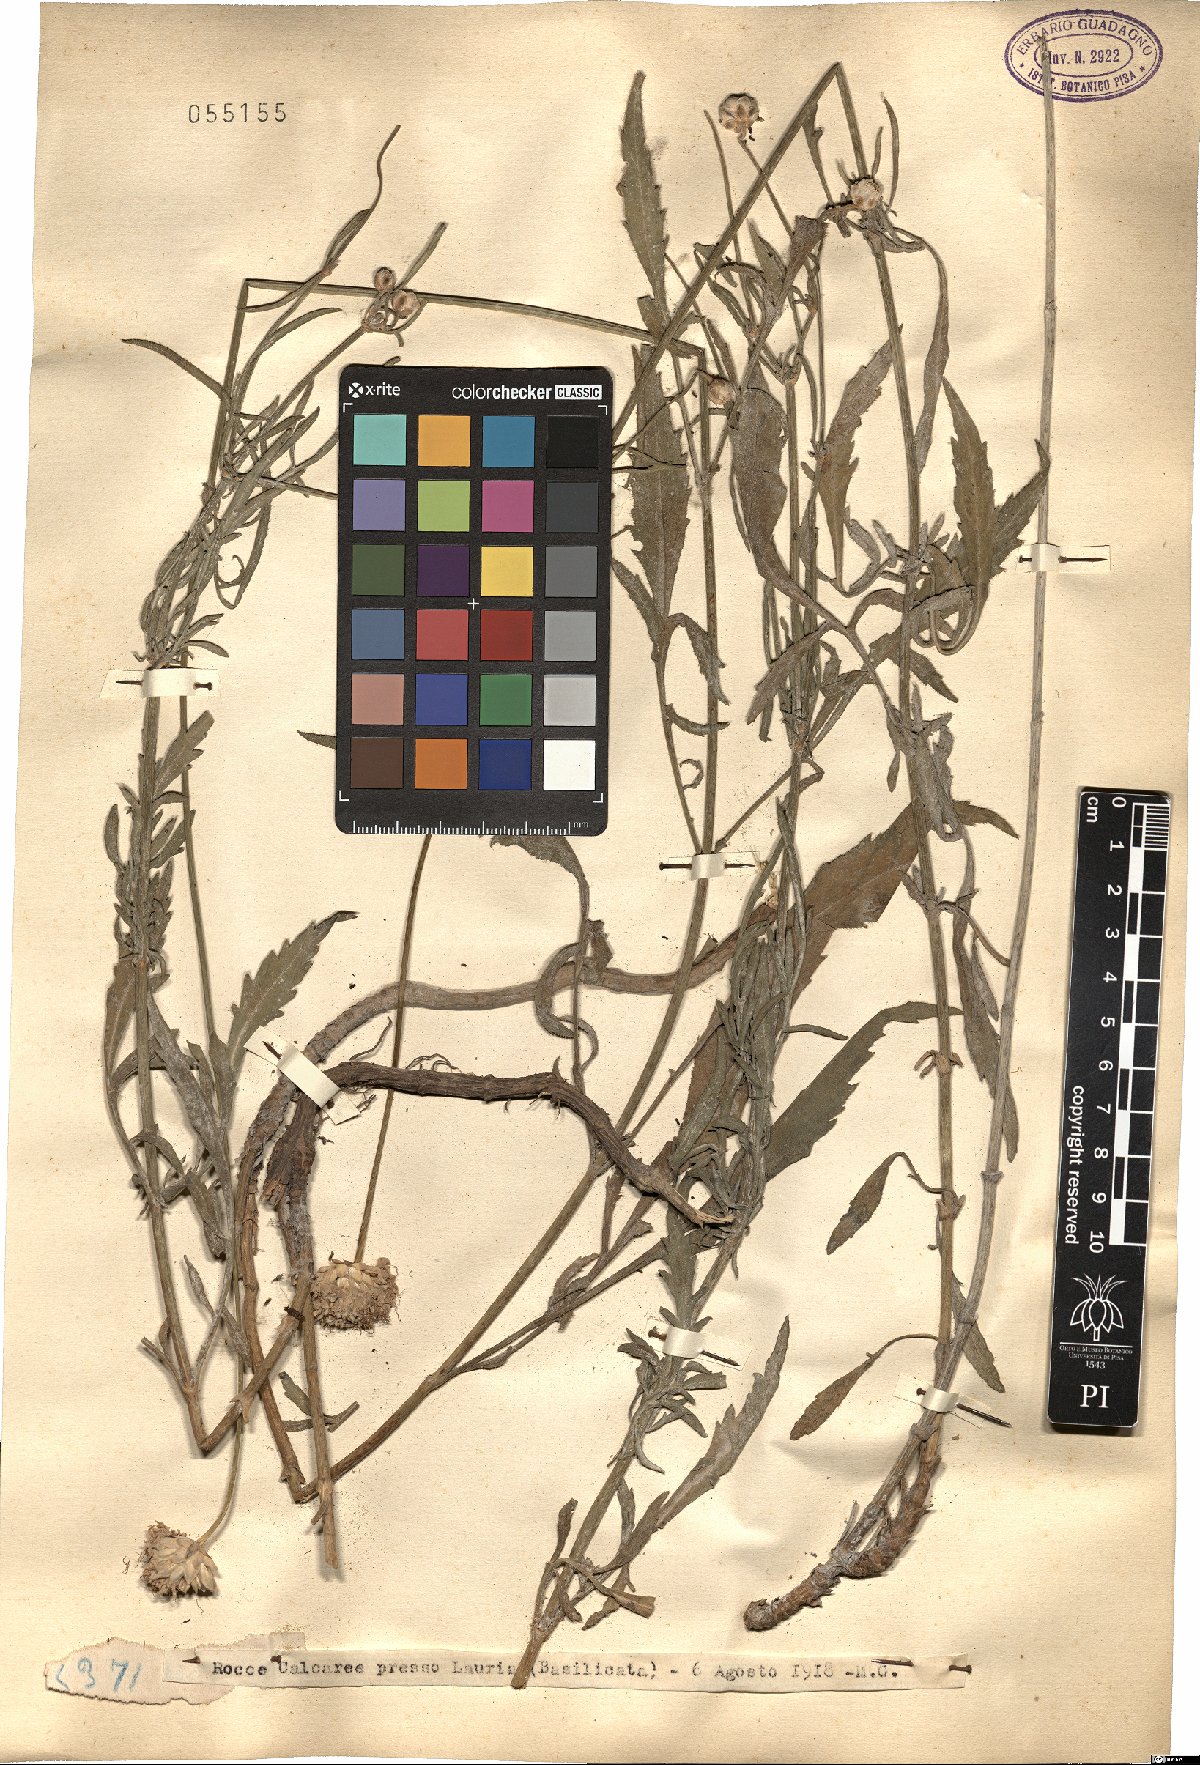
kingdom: Plantae
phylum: Tracheophyta
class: Magnoliopsida
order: Dipsacales
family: Caprifoliaceae
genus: Cephalaria
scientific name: Cephalaria
